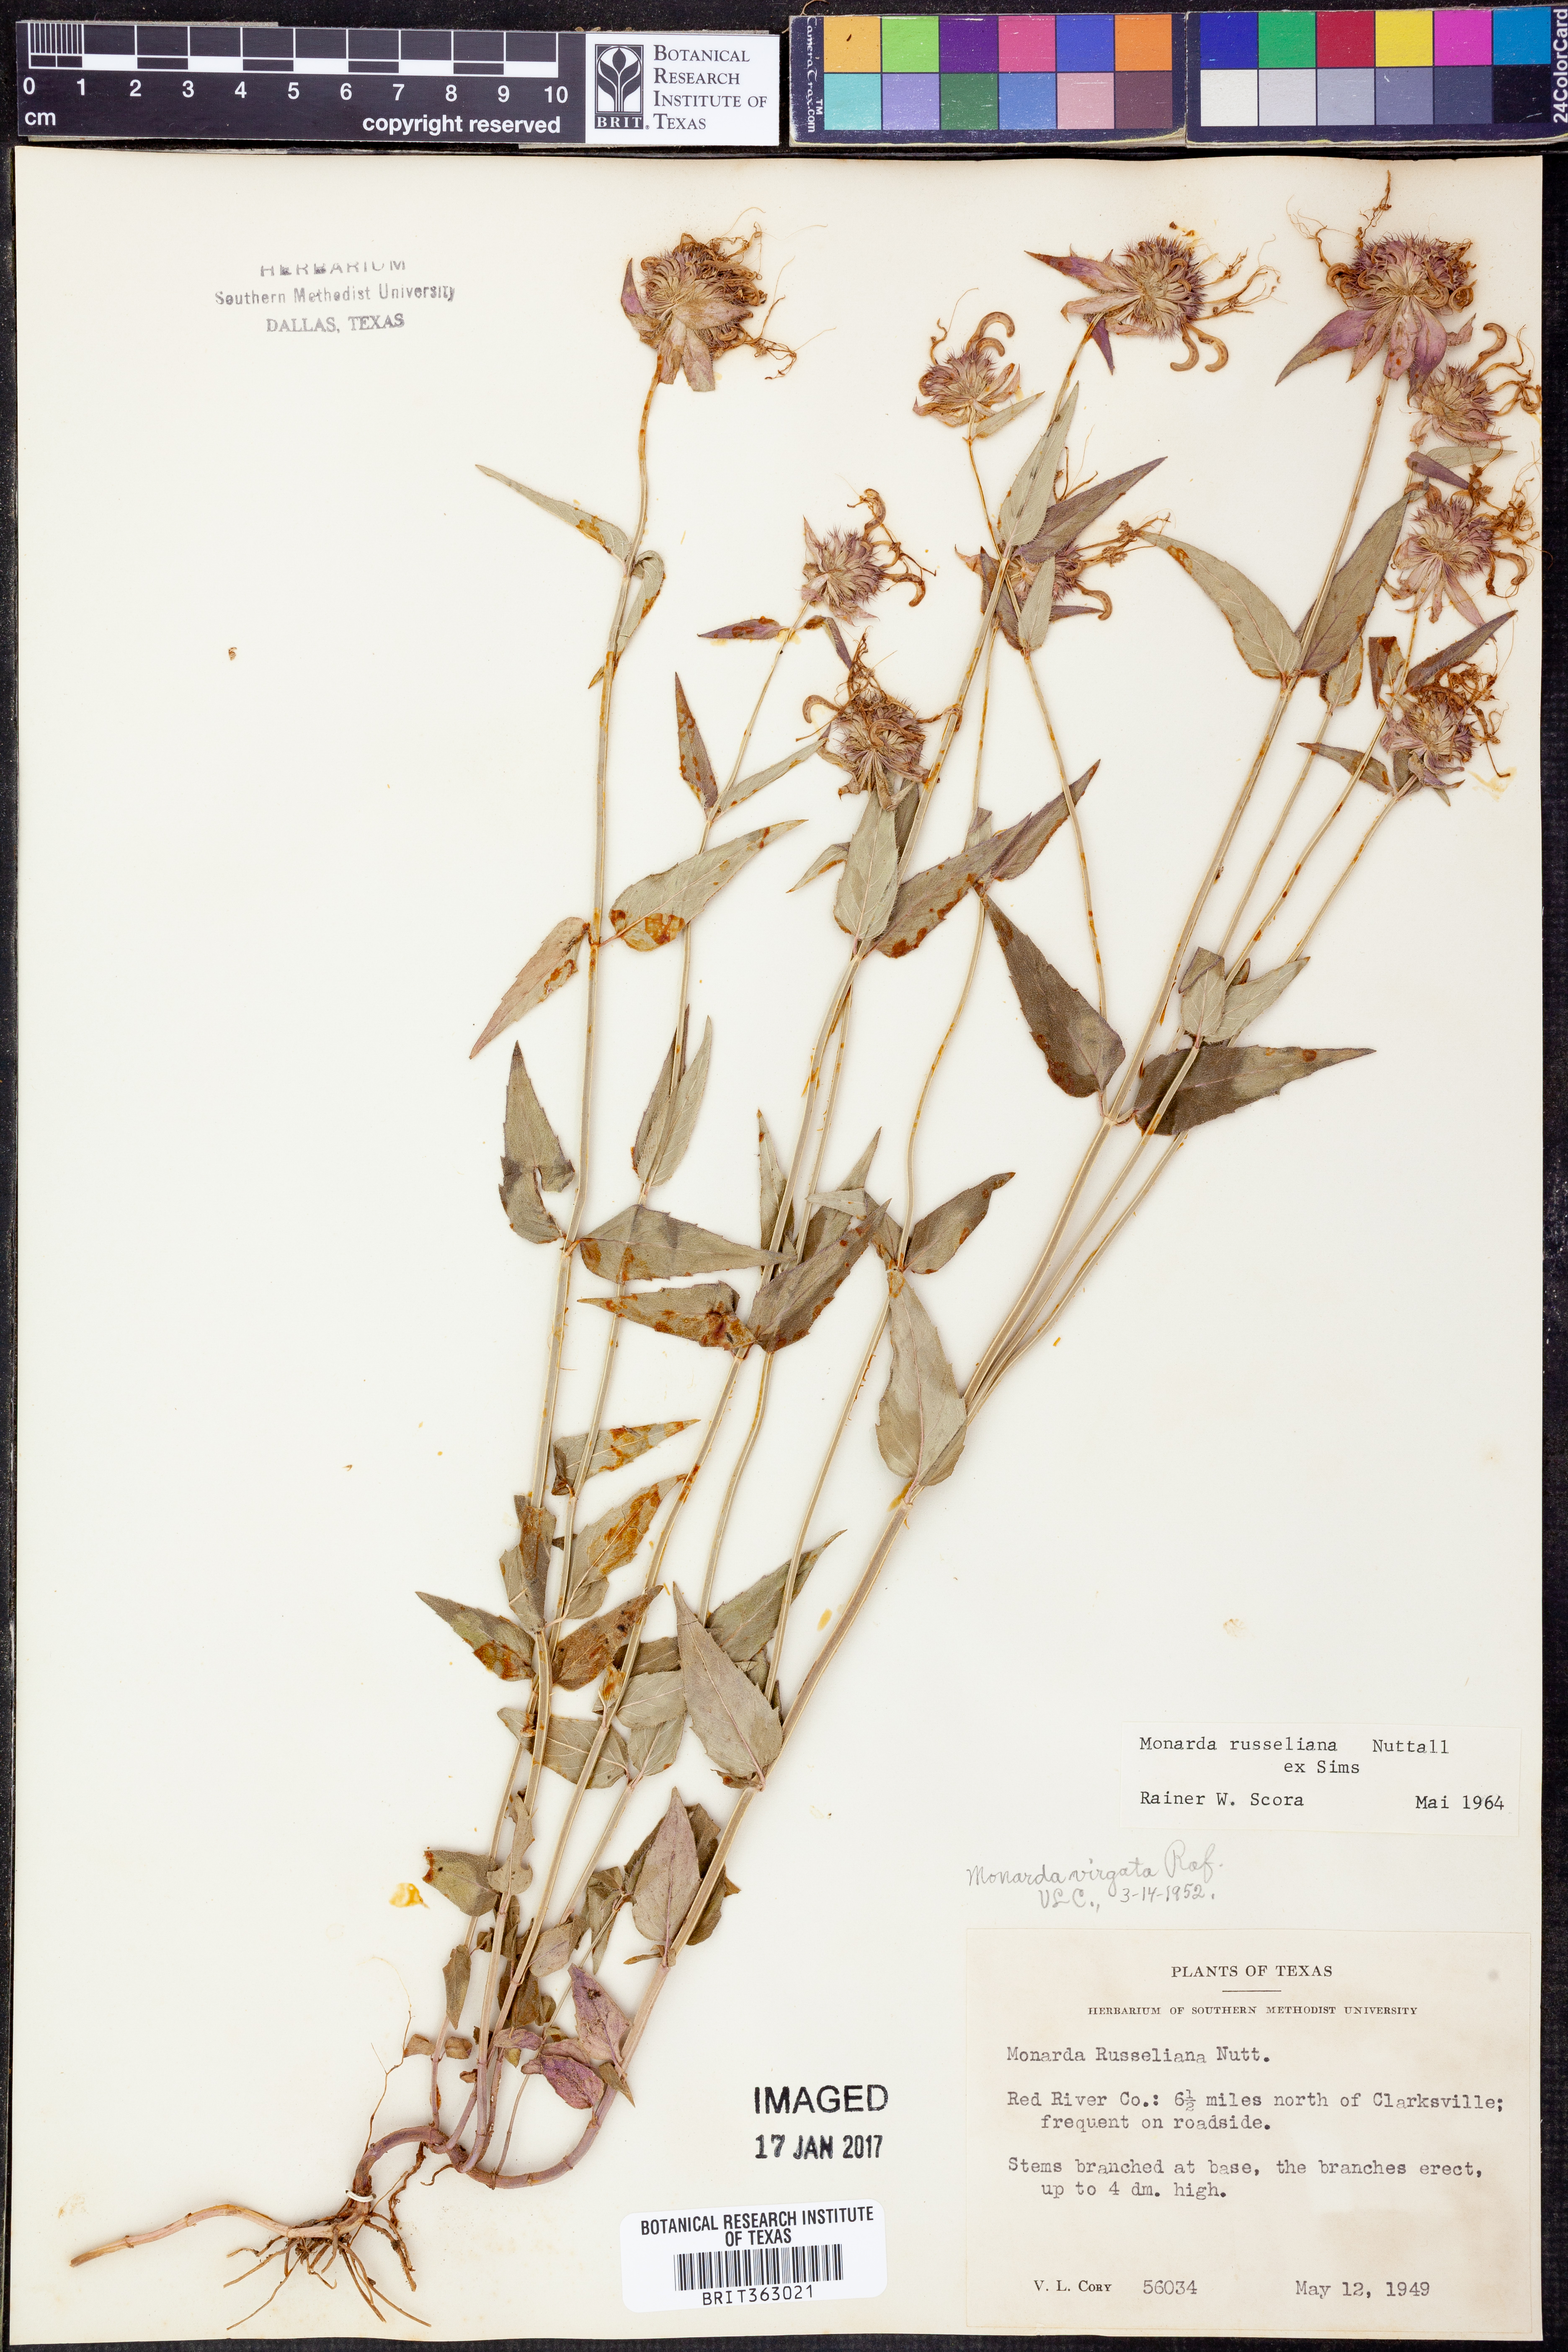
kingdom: Plantae
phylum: Tracheophyta
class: Magnoliopsida
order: Lamiales
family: Lamiaceae
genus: Monarda
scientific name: Monarda russeliana
